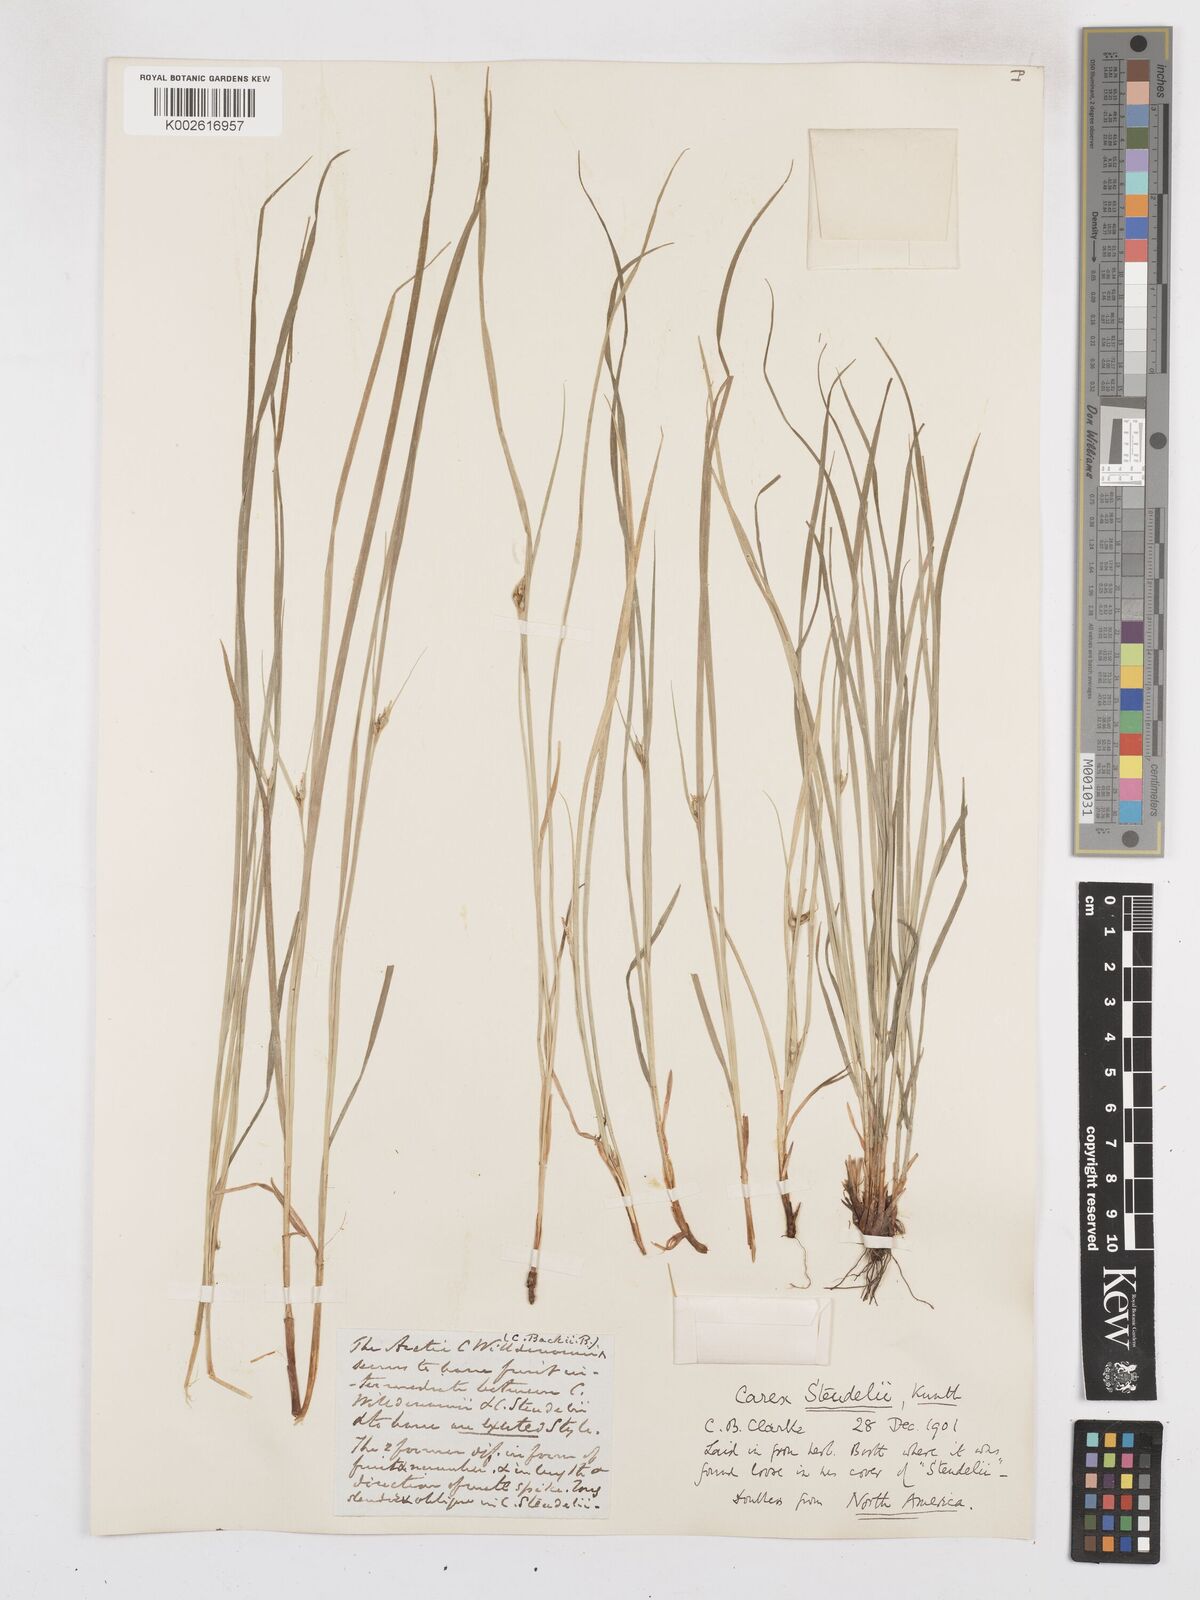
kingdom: Plantae
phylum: Tracheophyta
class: Liliopsida
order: Poales
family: Cyperaceae
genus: Carex
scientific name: Carex jamesii
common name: Grass sedge
